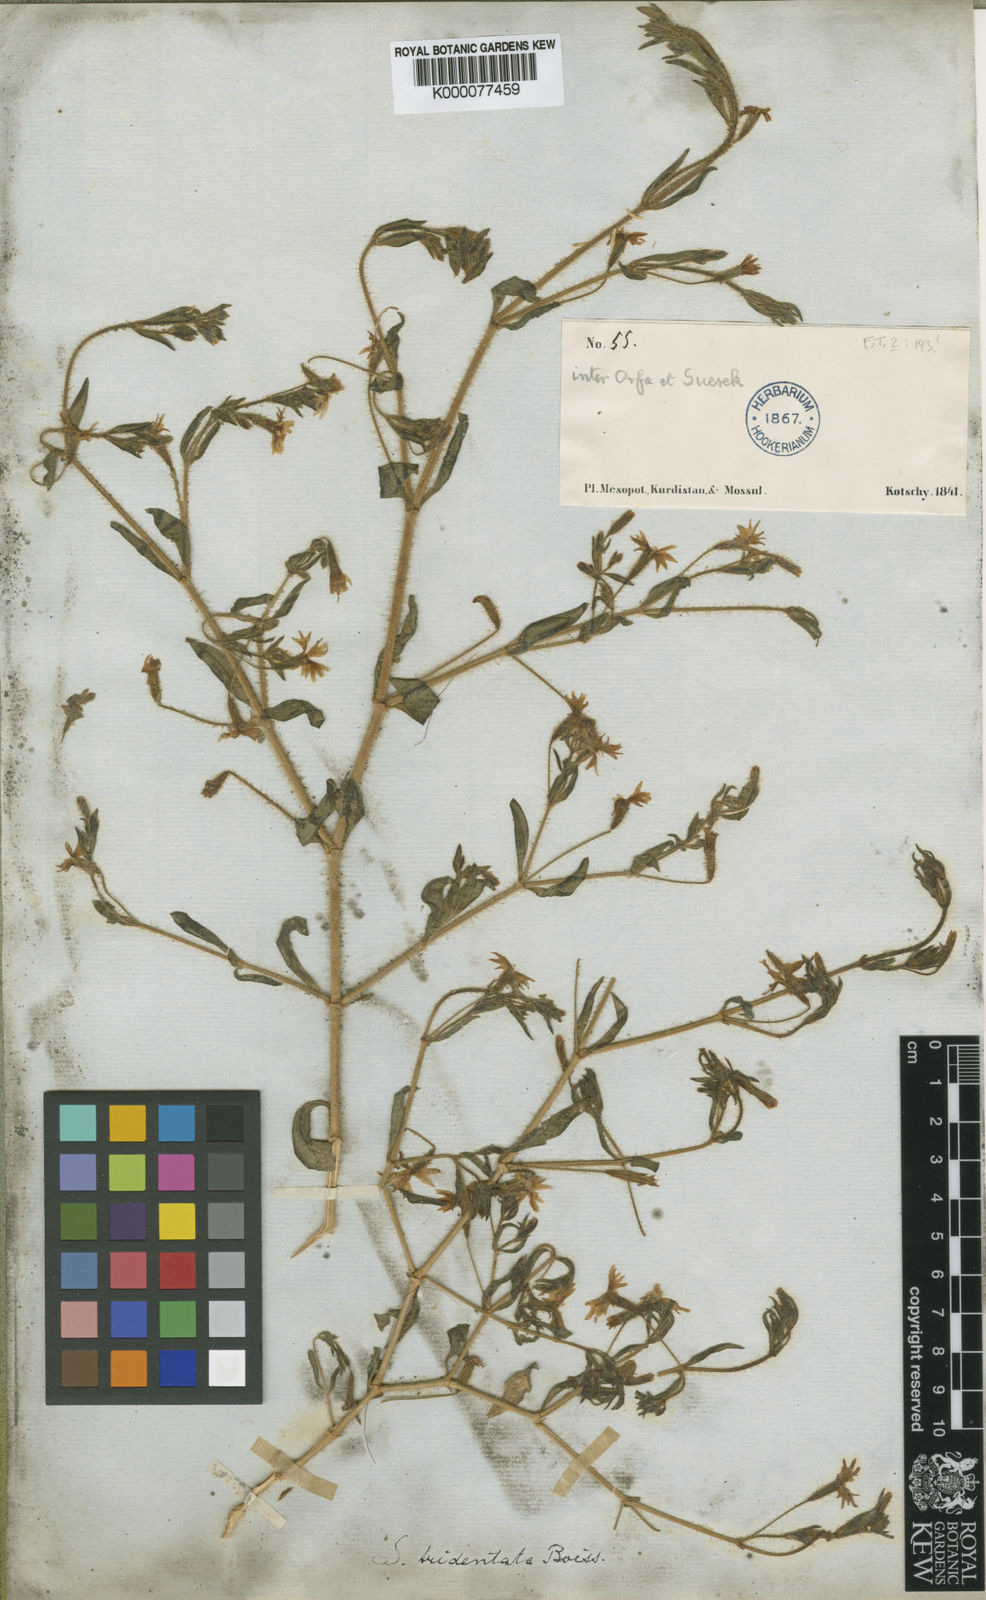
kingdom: Plantae
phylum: Tracheophyta
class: Magnoliopsida
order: Caryophyllales
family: Caryophyllaceae
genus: Saponaria
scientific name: Saponaria tridentata
